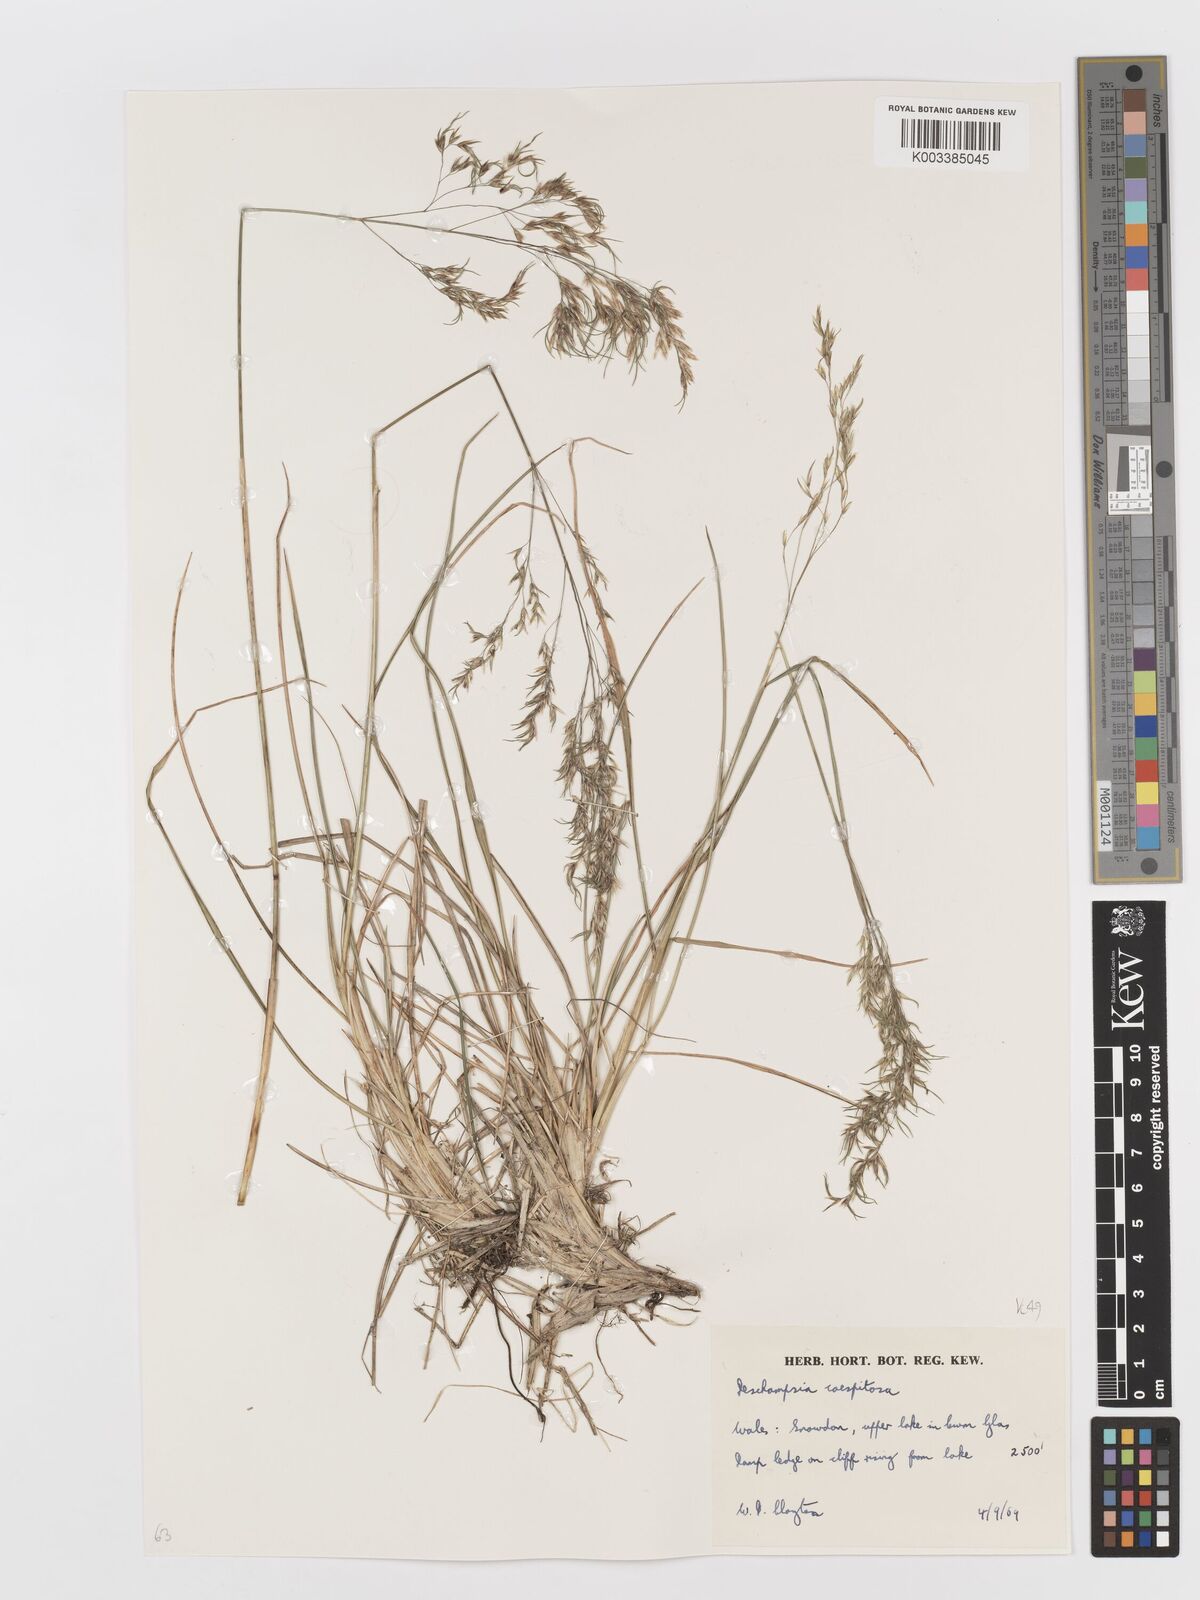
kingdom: Plantae
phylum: Tracheophyta
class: Liliopsida
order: Poales
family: Poaceae
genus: Deschampsia
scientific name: Deschampsia cespitosa
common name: Tufted hair-grass
